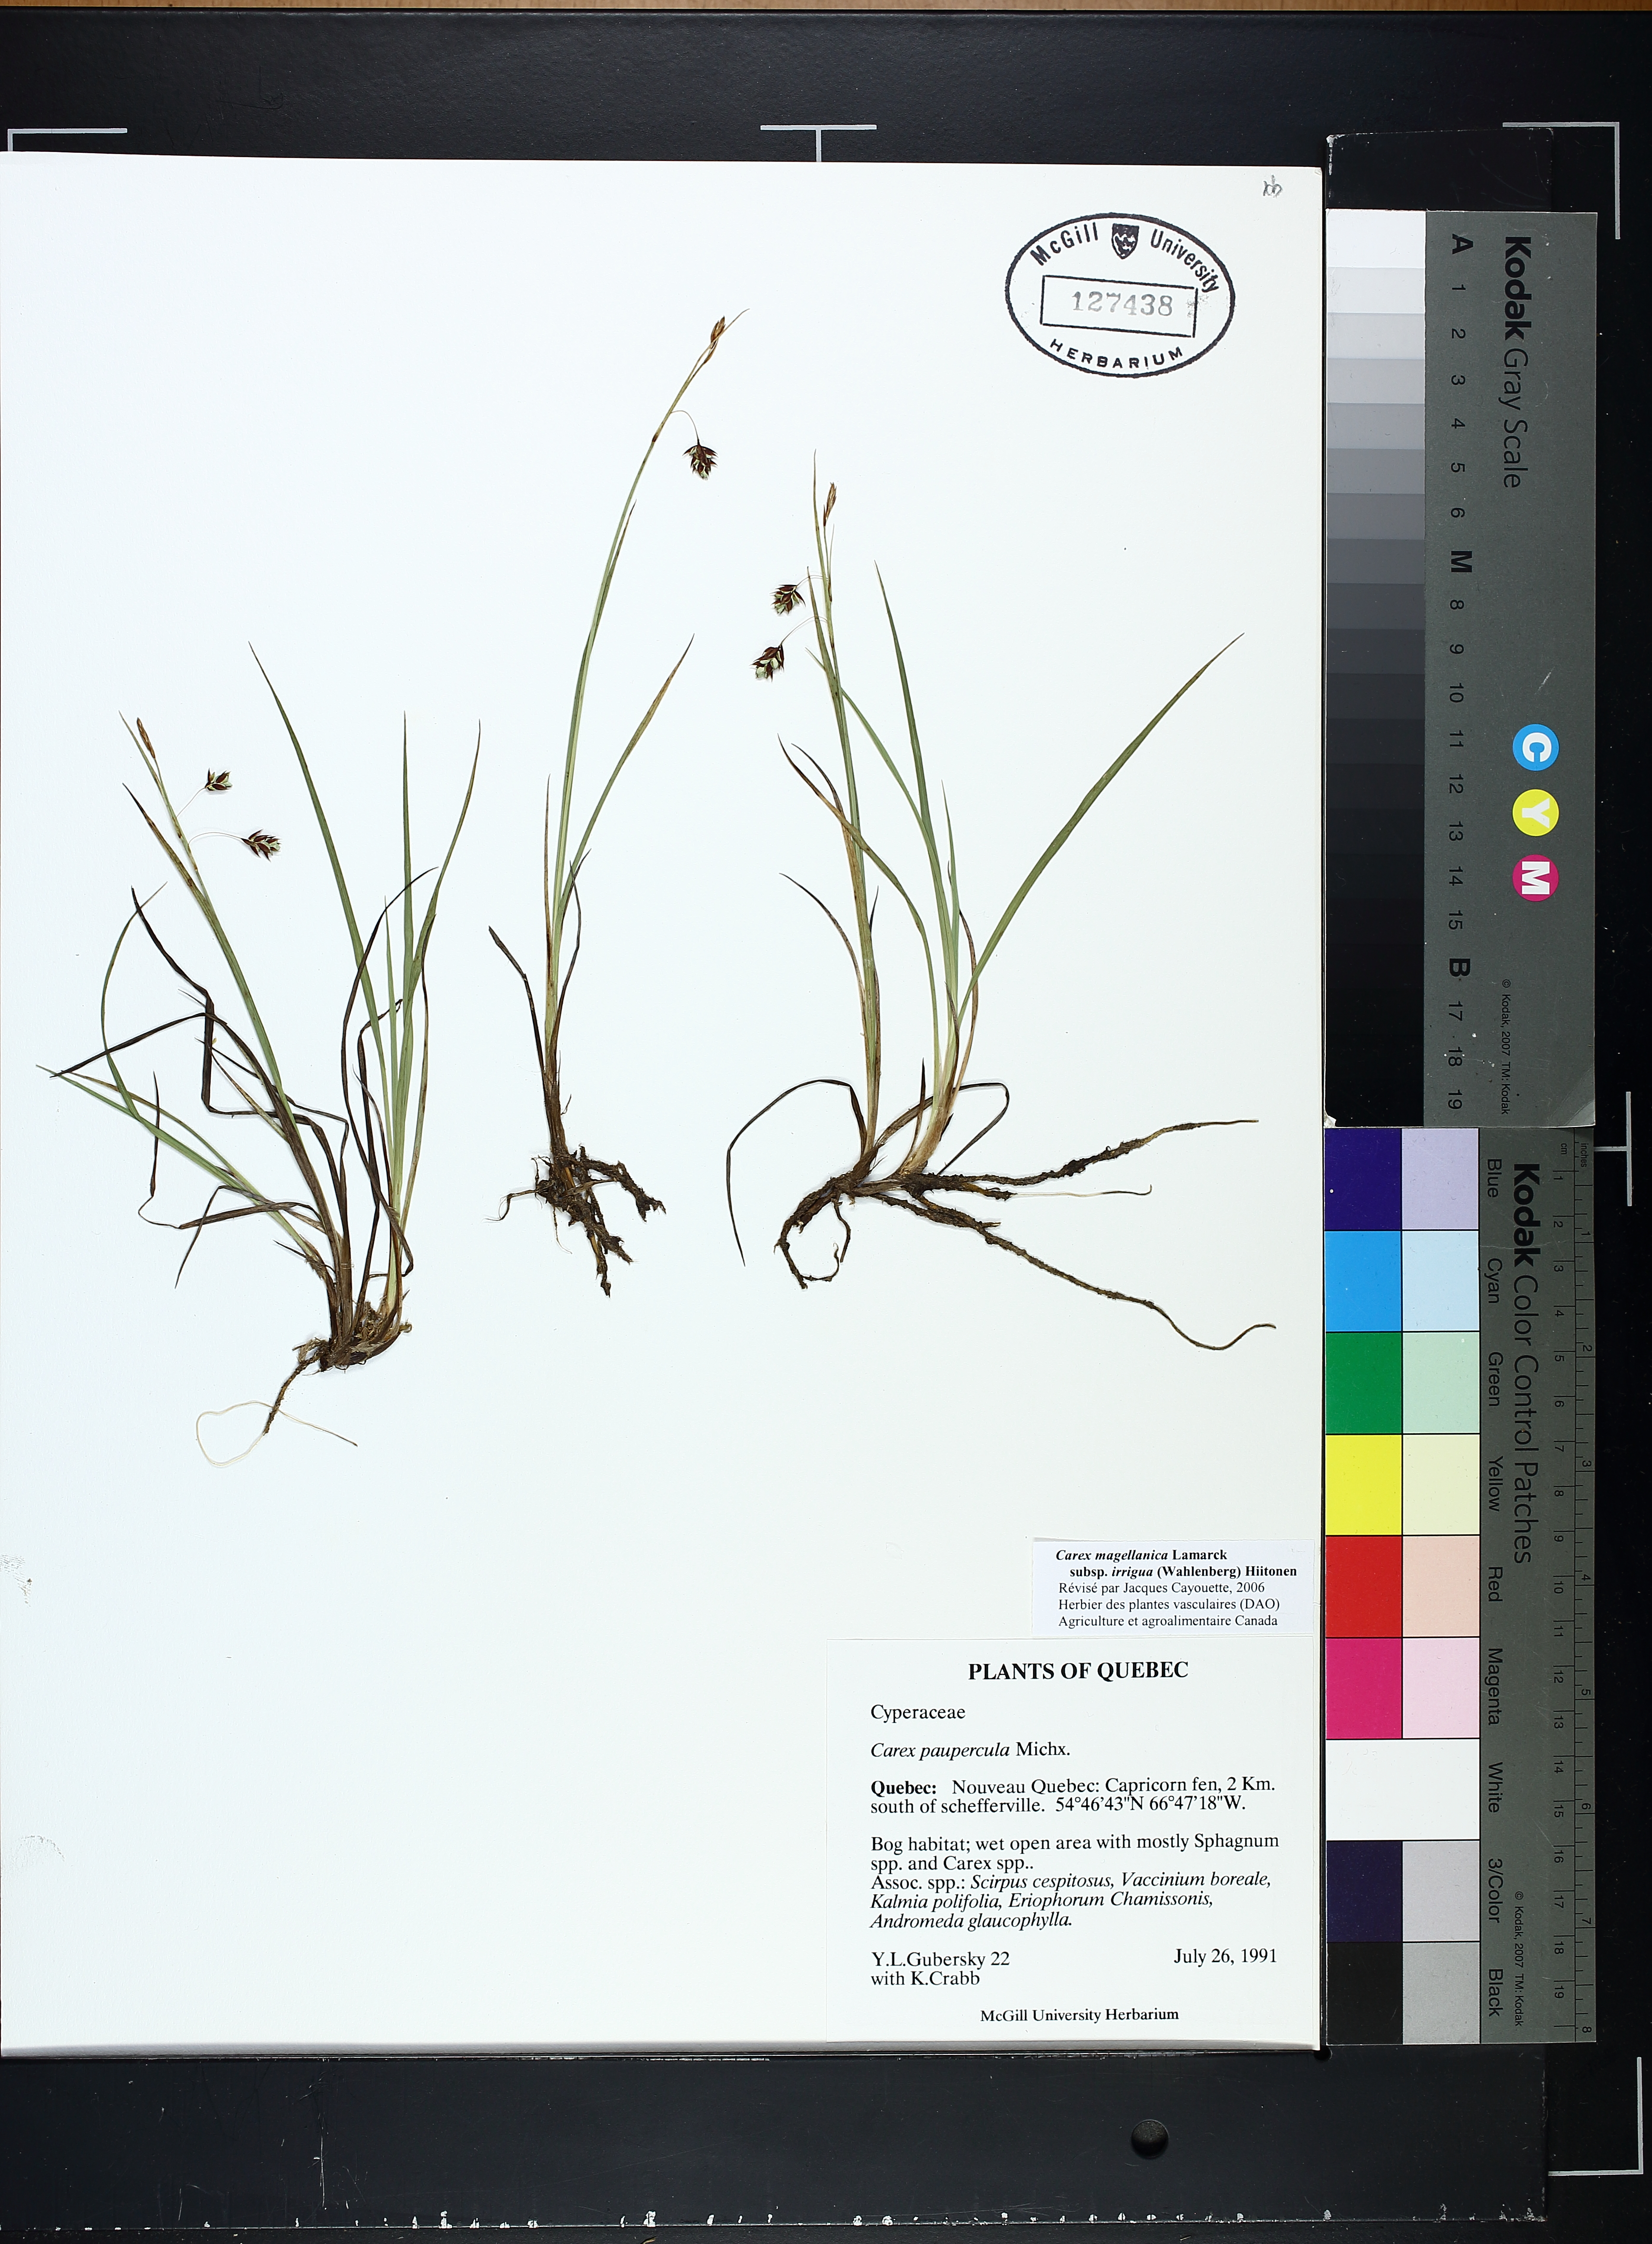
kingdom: Plantae
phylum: Tracheophyta
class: Liliopsida
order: Poales
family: Cyperaceae
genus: Carex
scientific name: Carex magellanica
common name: Bog sedge
